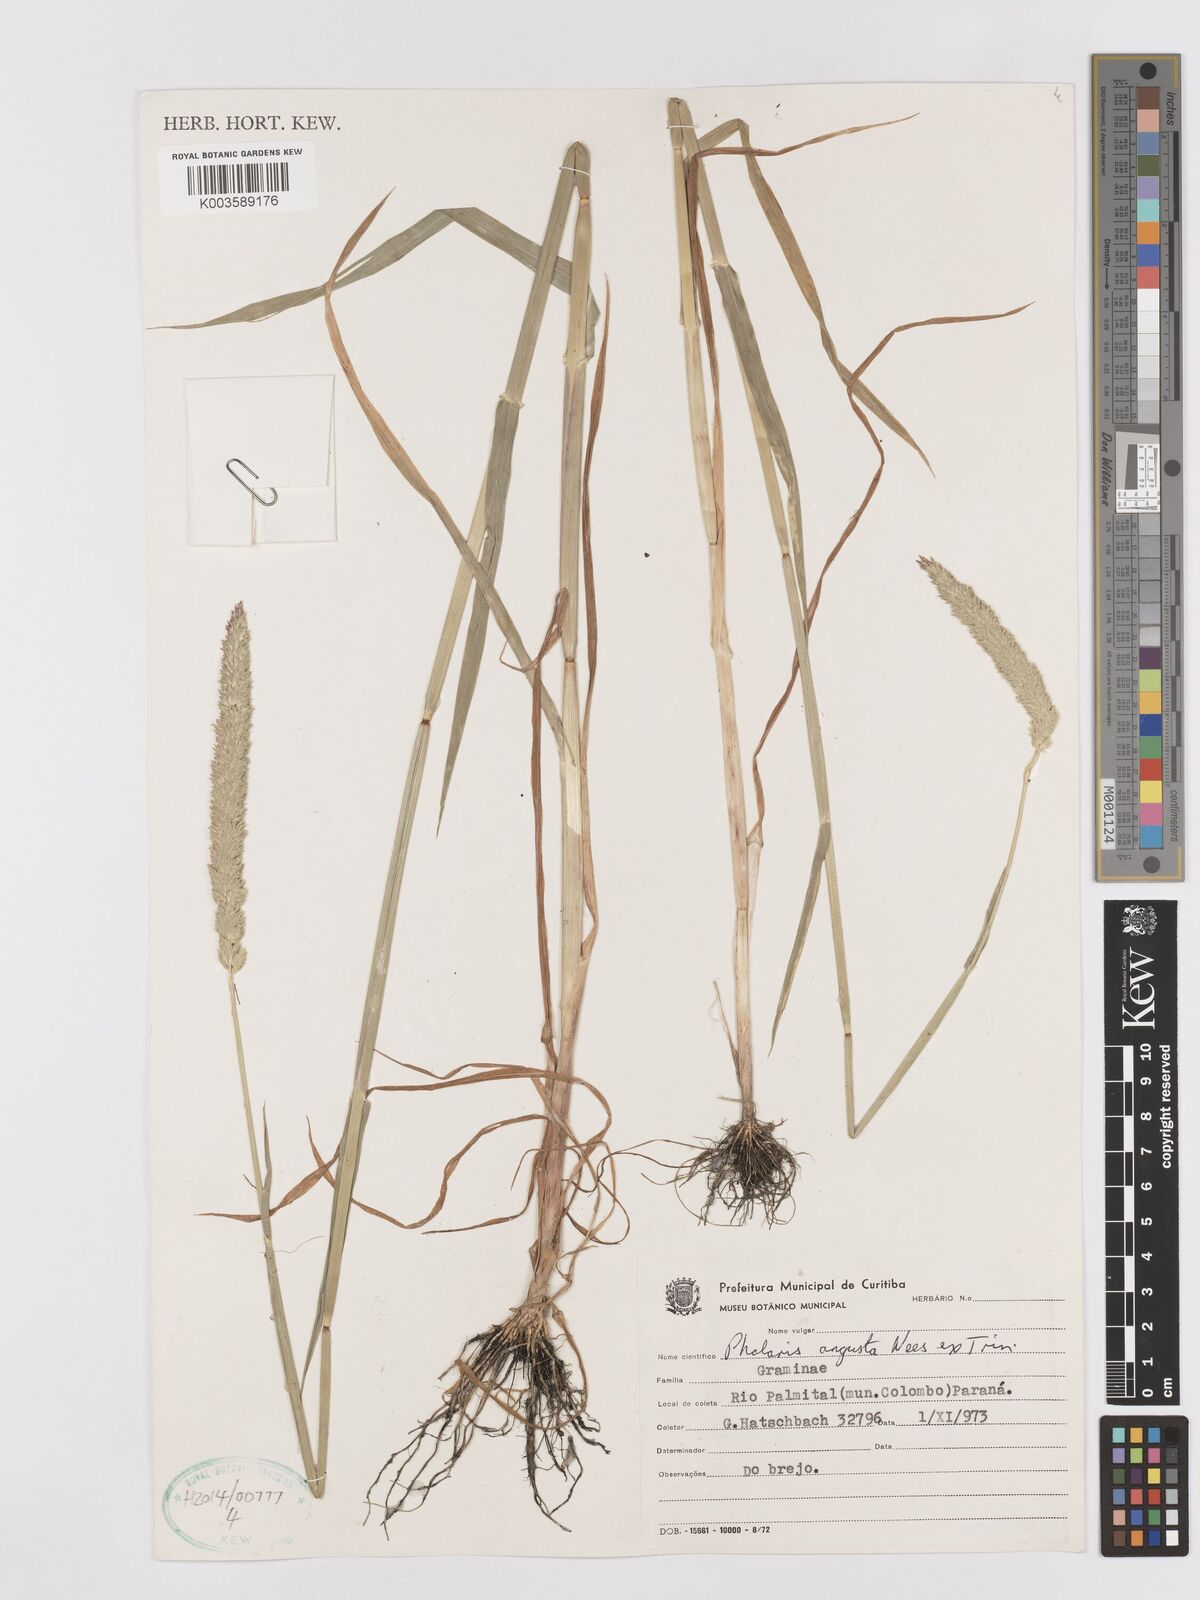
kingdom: Plantae
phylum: Tracheophyta
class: Liliopsida
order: Poales
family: Poaceae
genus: Phalaris
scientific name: Phalaris angusta
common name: Narrow canary grass
